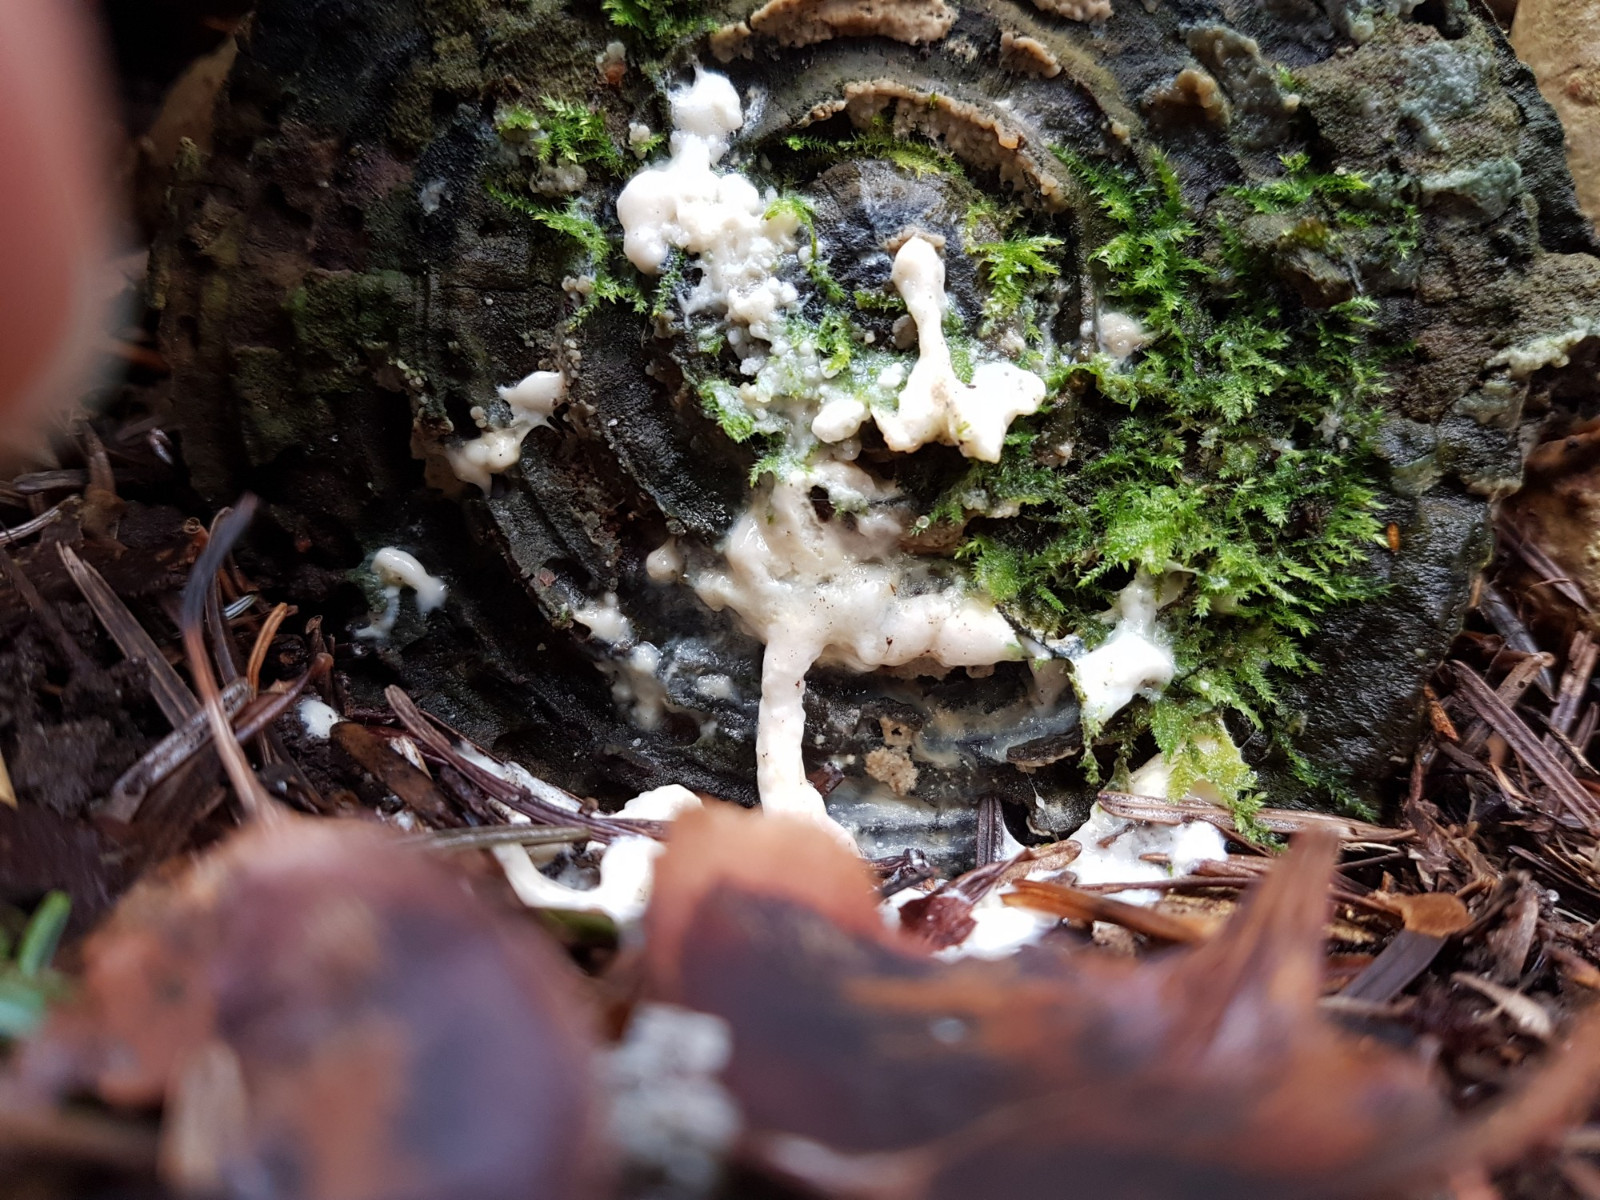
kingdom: Protozoa
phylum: Mycetozoa
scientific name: Mycetozoa
